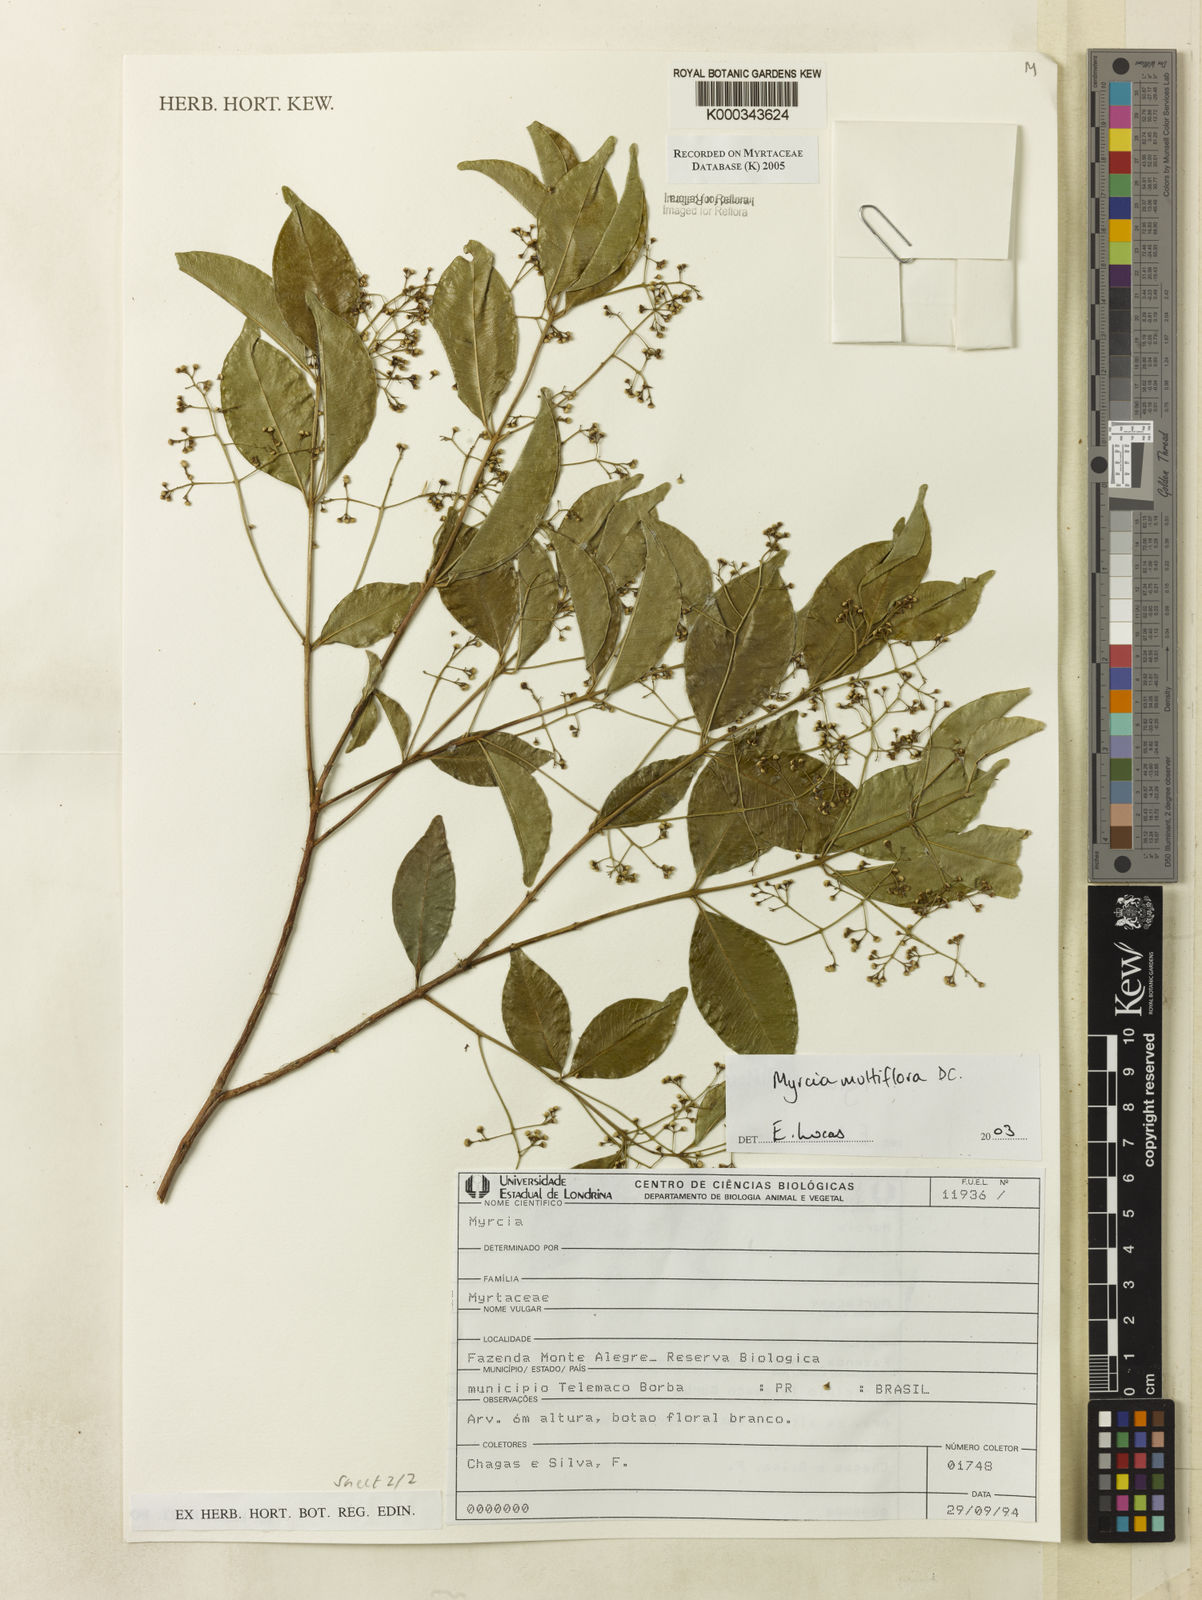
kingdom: Plantae
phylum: Tracheophyta
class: Magnoliopsida
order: Myrtales
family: Myrtaceae
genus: Myrcia
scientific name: Myrcia multiflora
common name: Pedra hume
